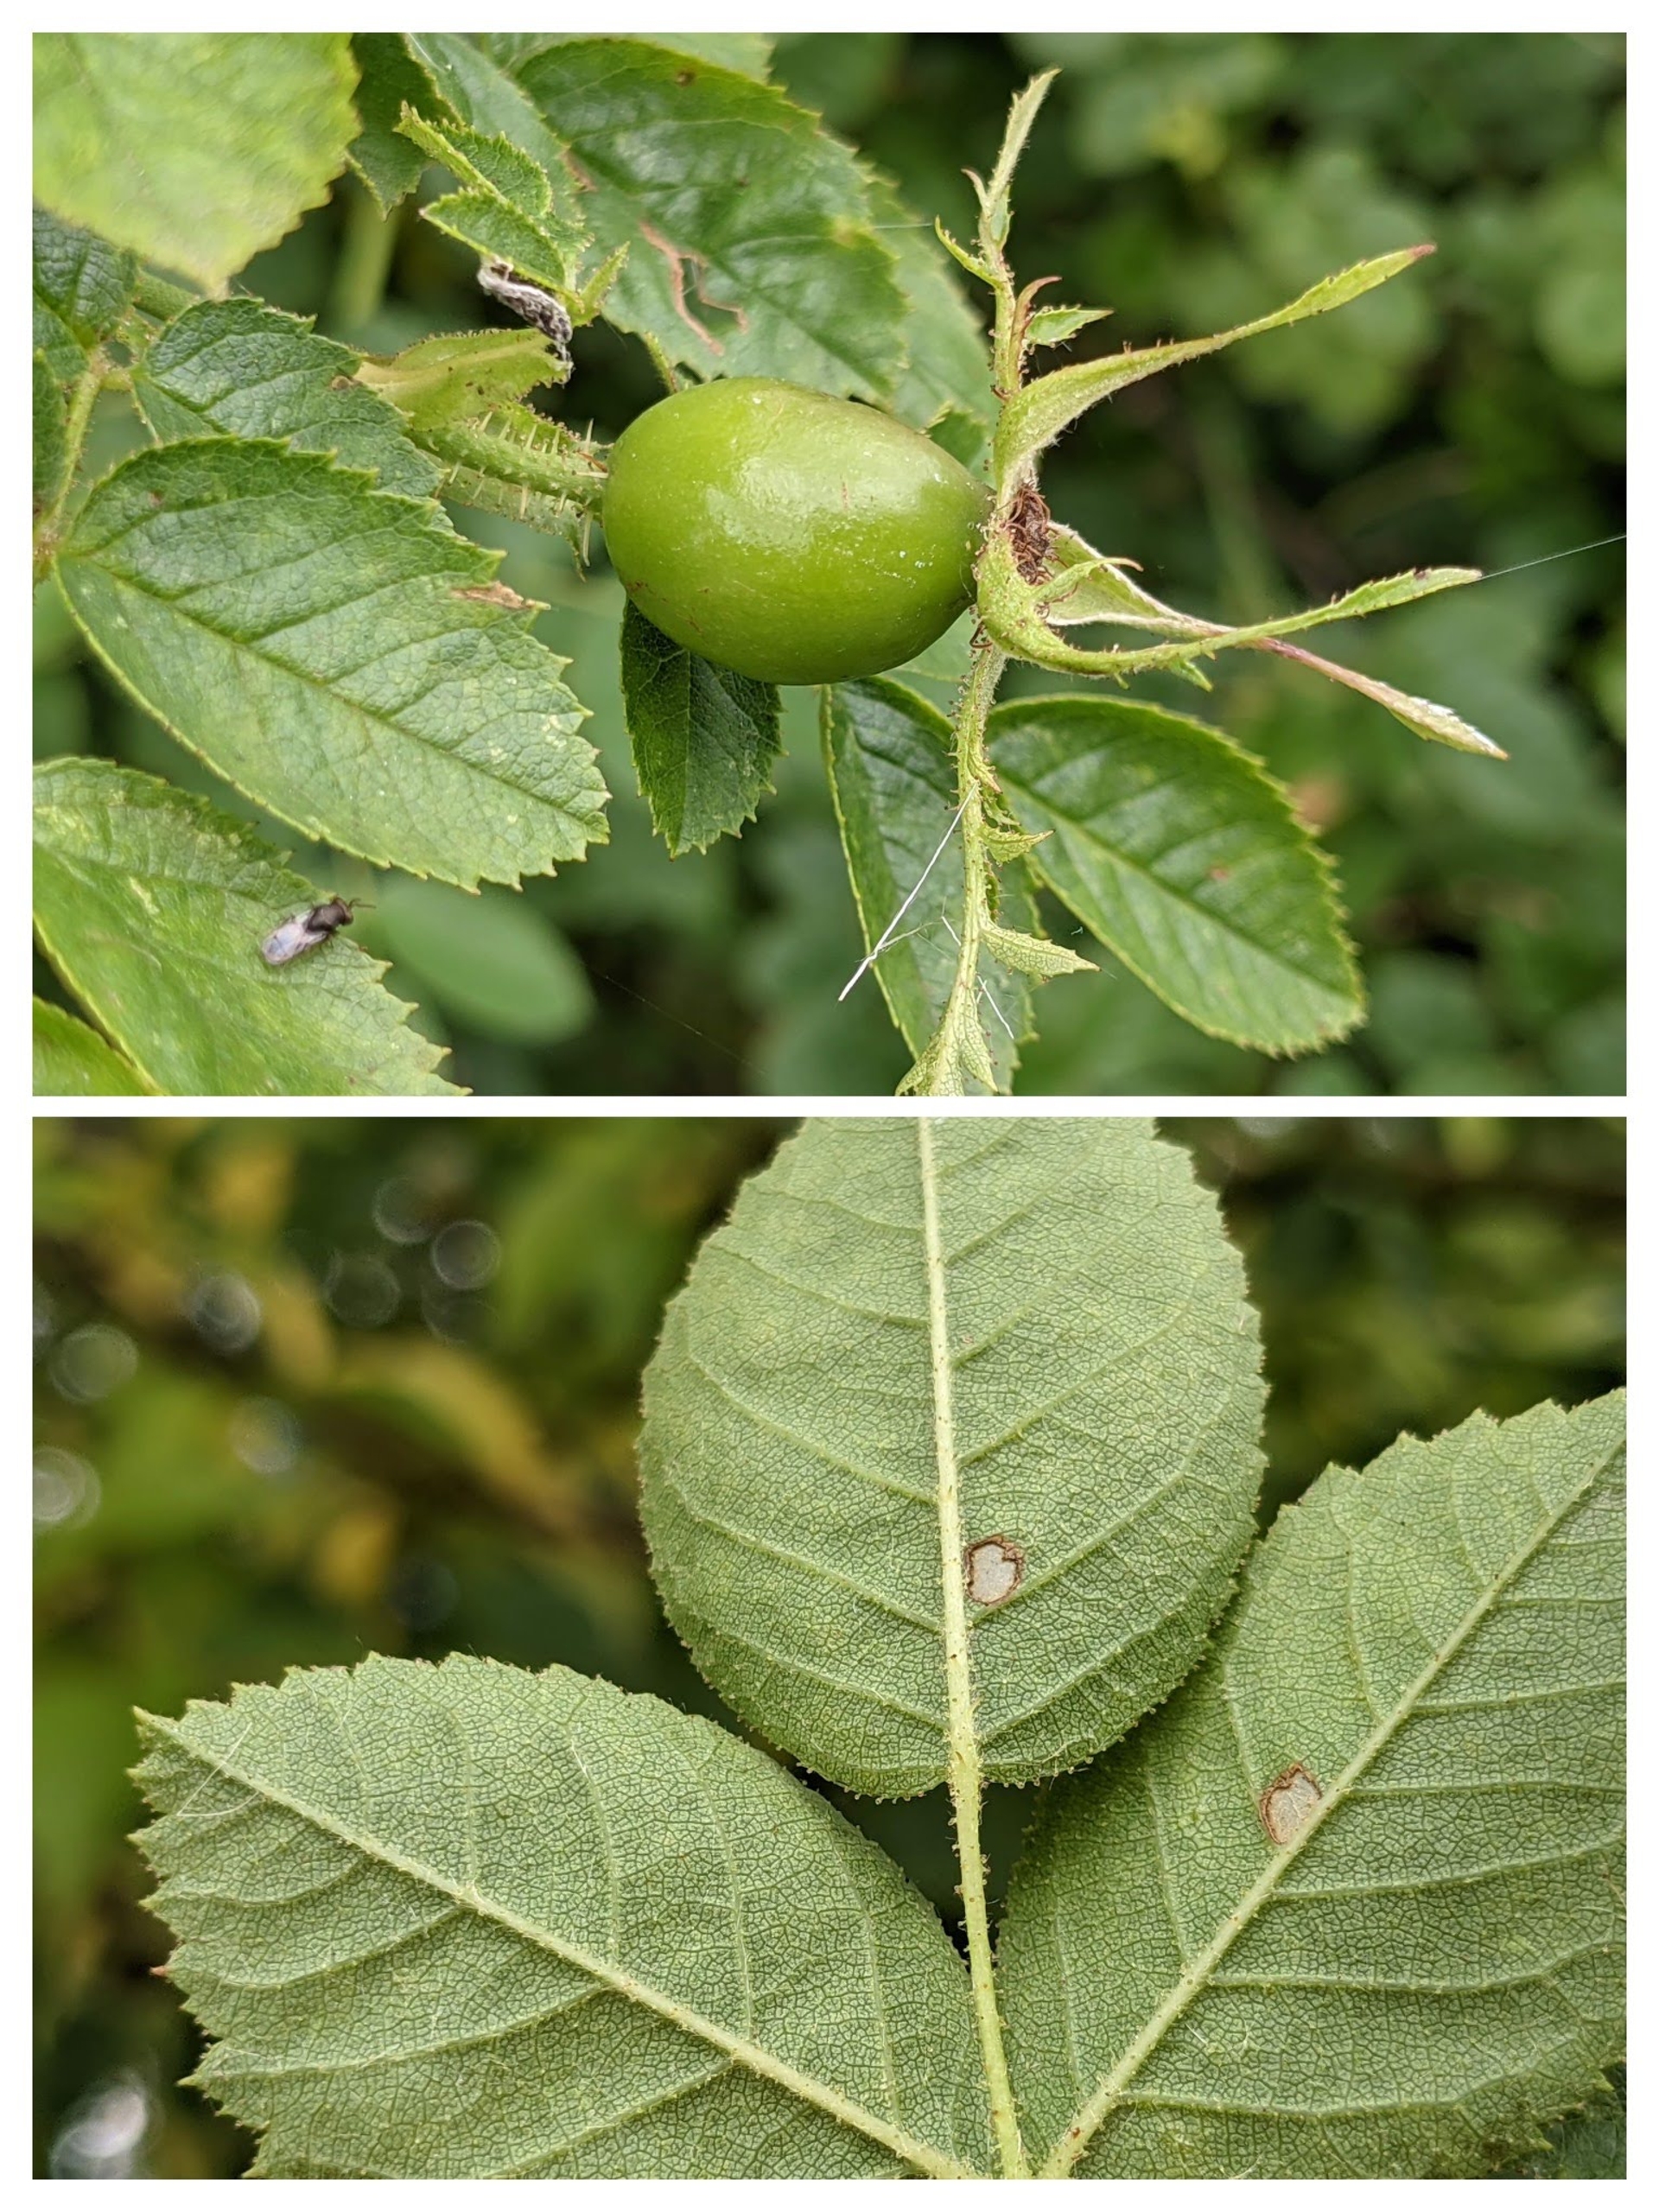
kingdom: Plantae
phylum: Tracheophyta
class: Magnoliopsida
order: Rosales
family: Rosaceae
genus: Rosa
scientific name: Rosa rubiginosa
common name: Æble-rose
